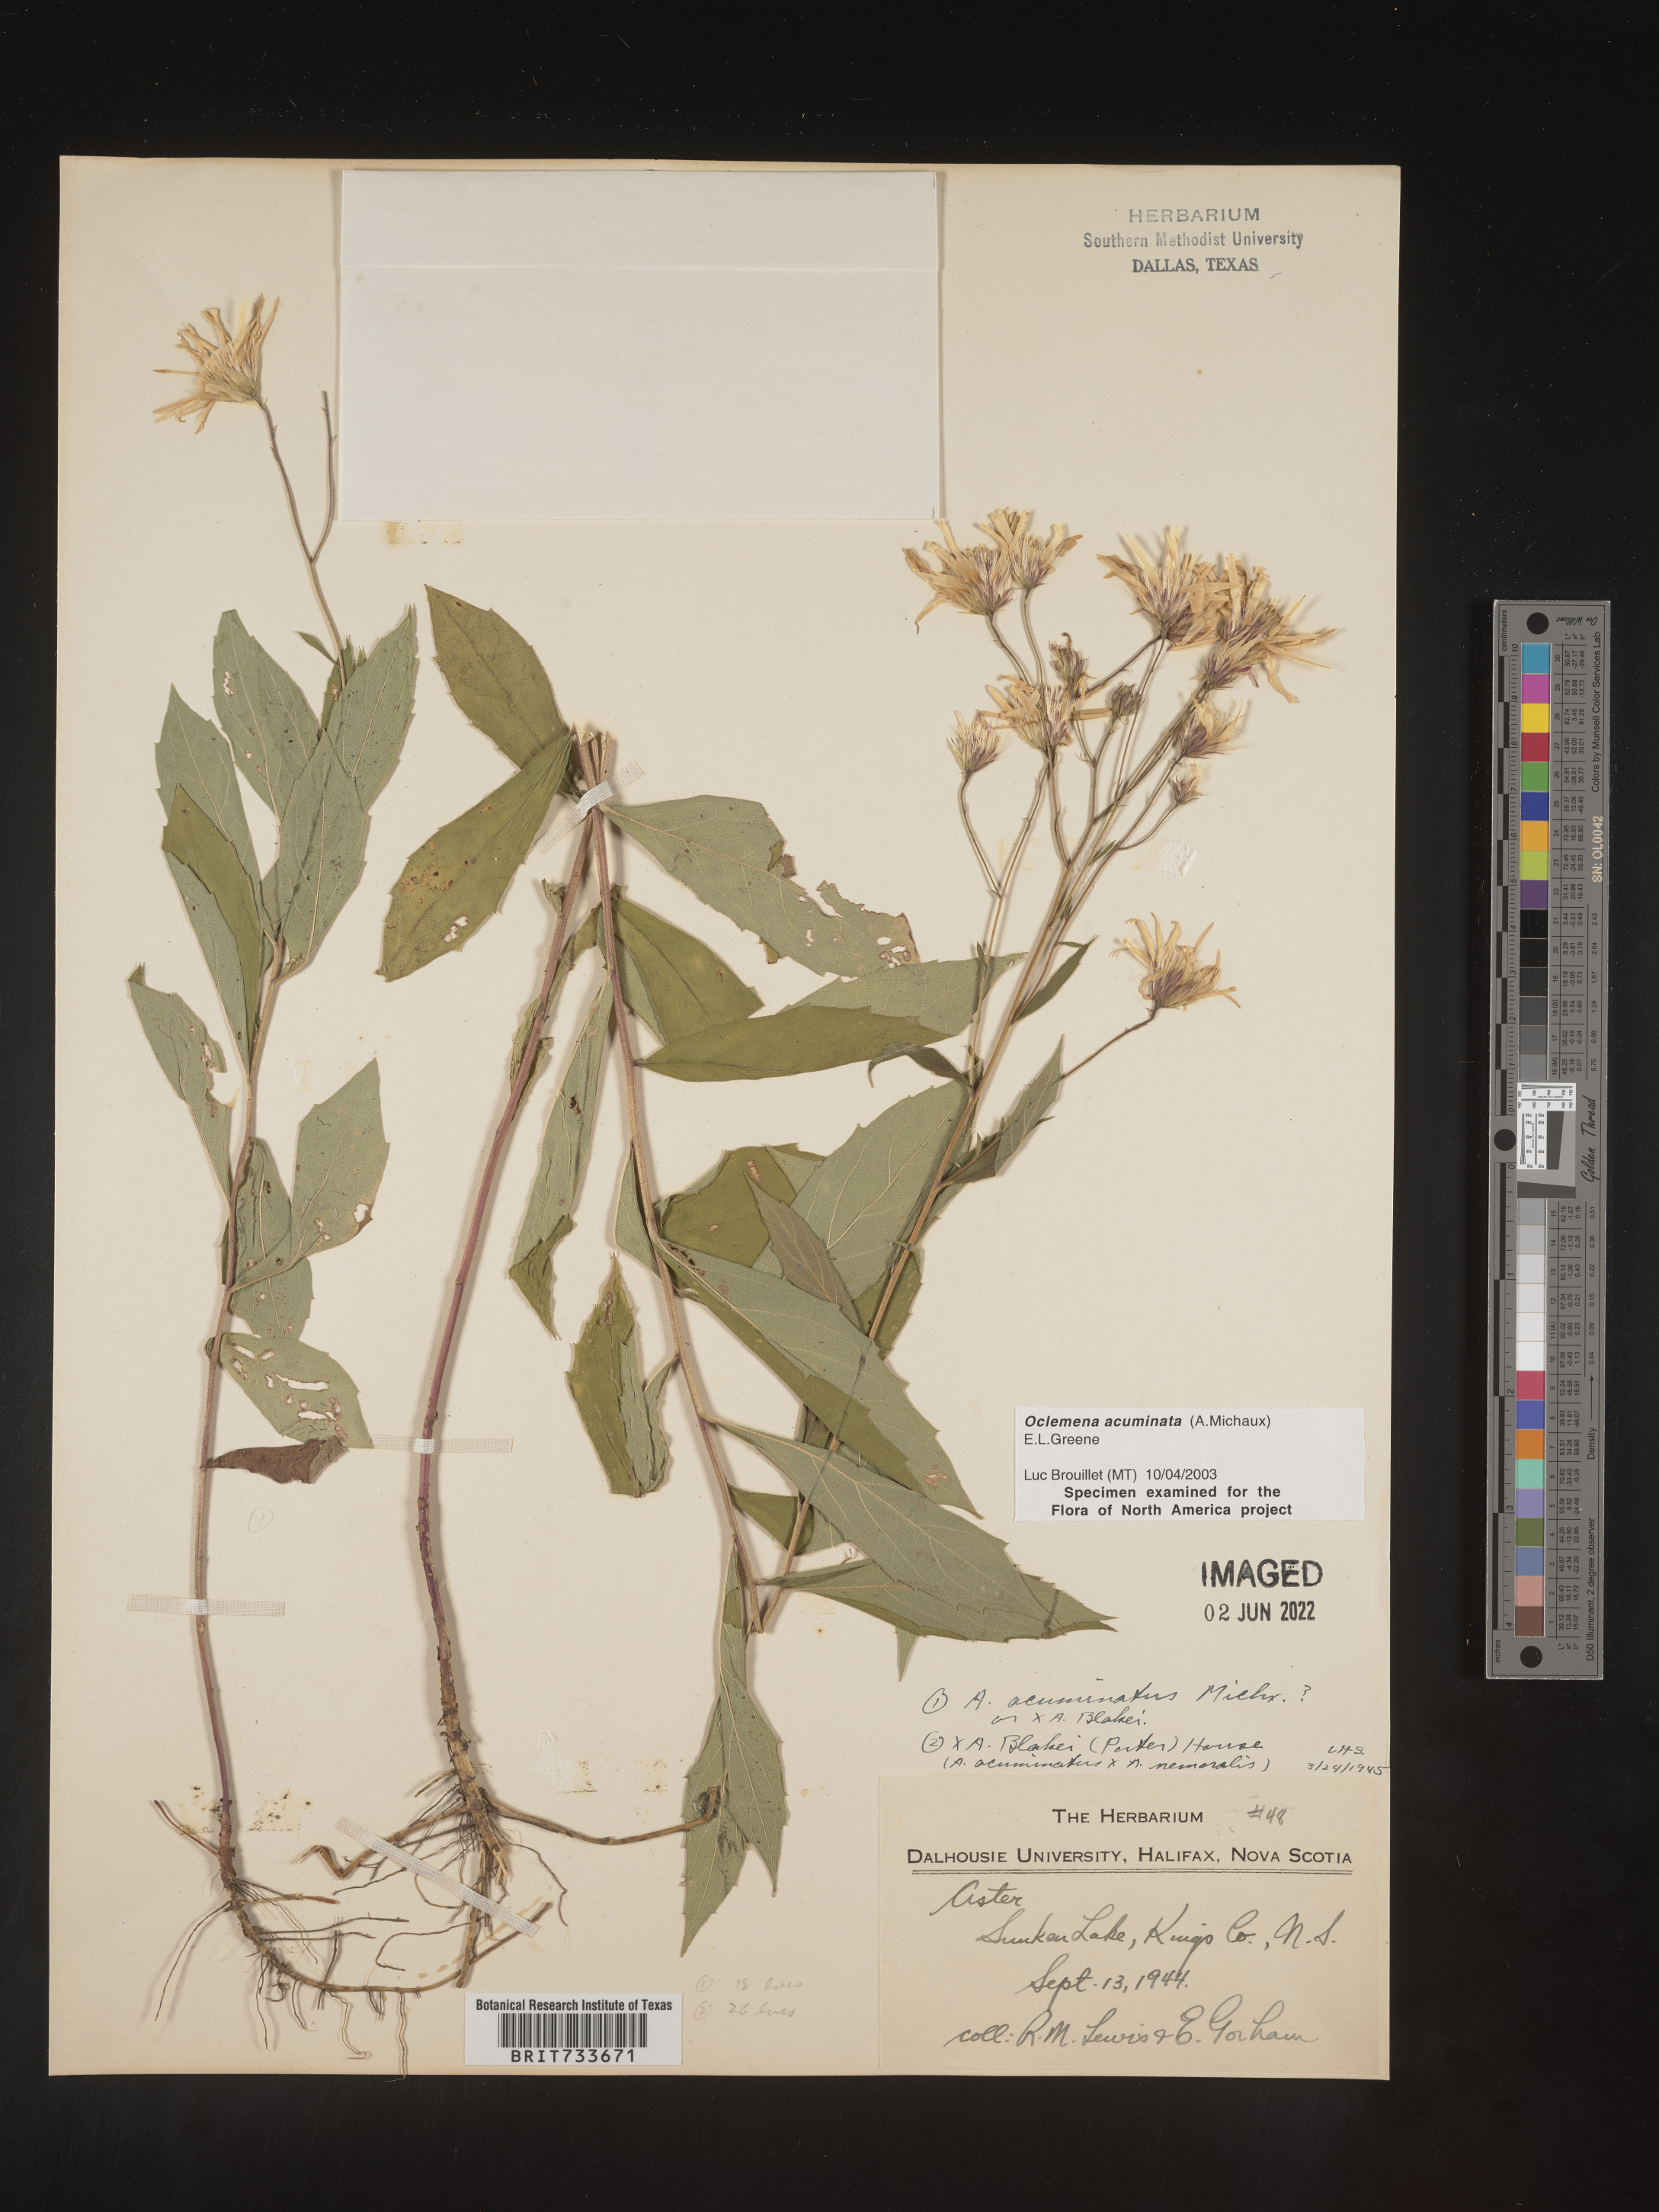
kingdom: Plantae
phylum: Tracheophyta
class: Magnoliopsida
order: Asterales
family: Asteraceae
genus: Oclemena
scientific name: Oclemena acuminata
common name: Mountain aster
